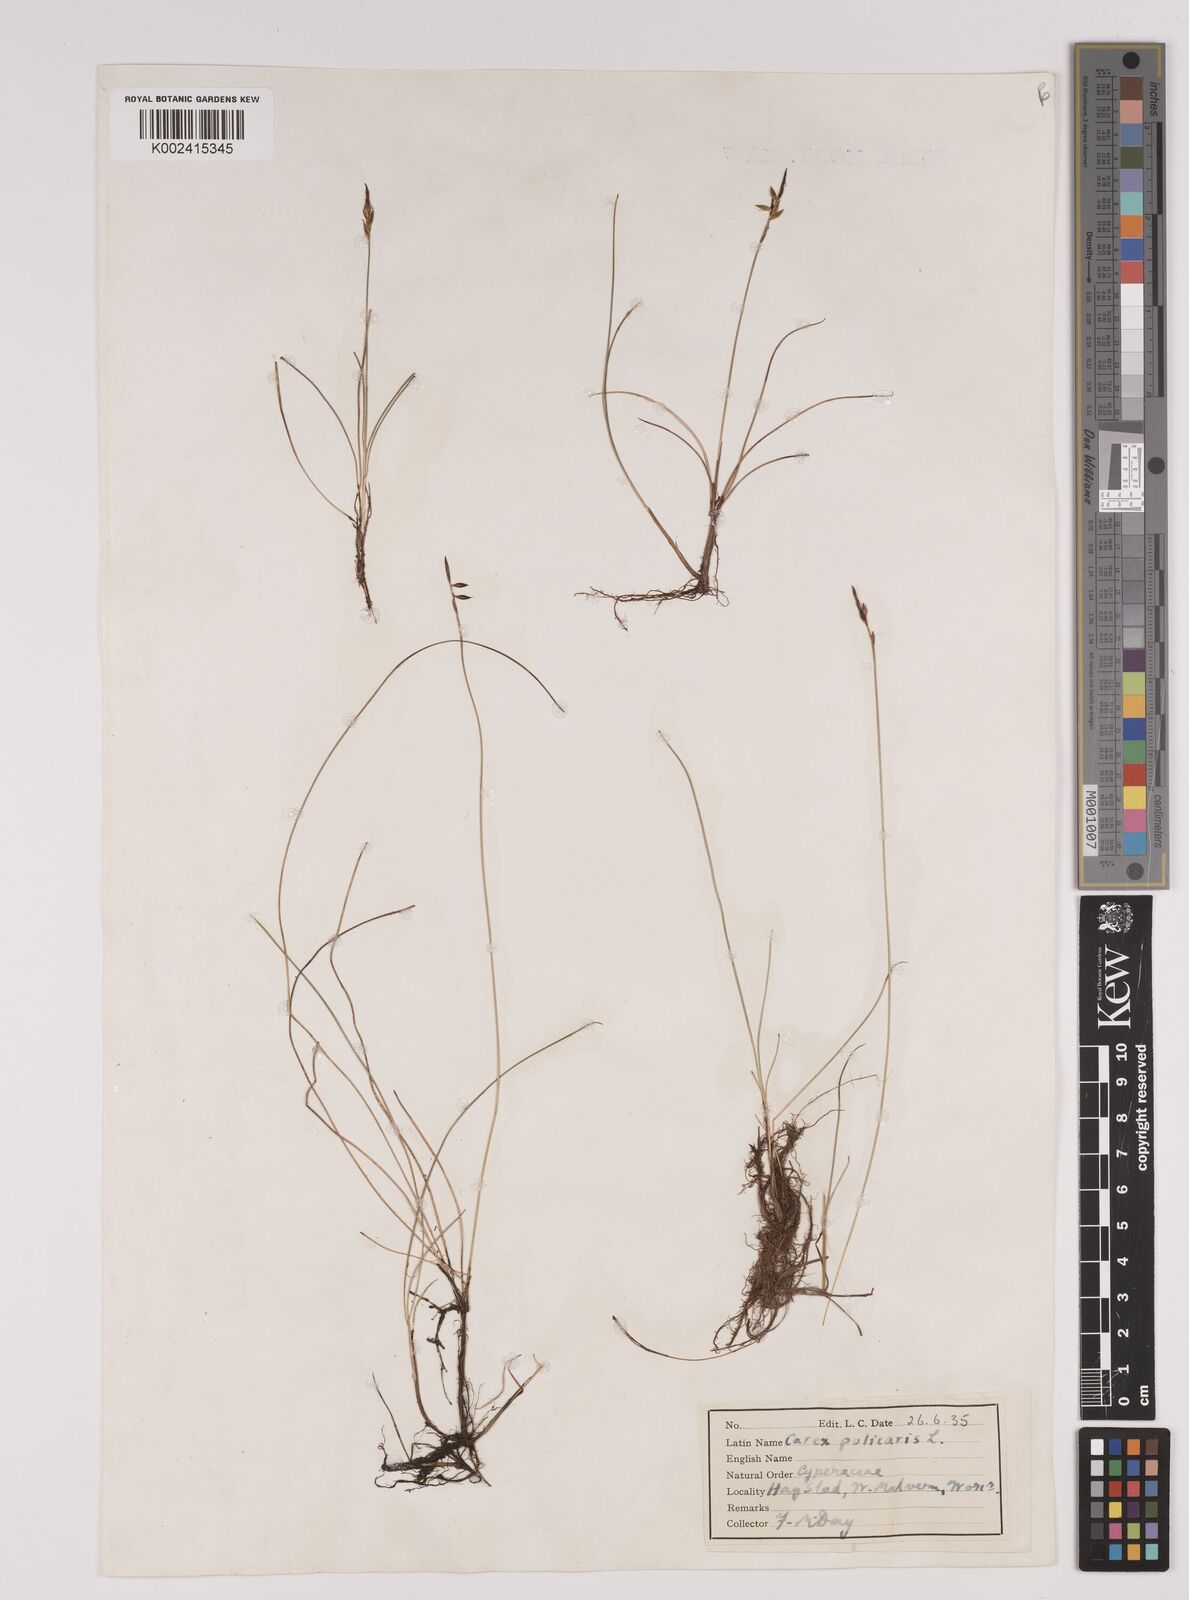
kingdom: Plantae
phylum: Tracheophyta
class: Liliopsida
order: Poales
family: Cyperaceae
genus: Carex
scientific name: Carex pulicaris
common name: Flea sedge
